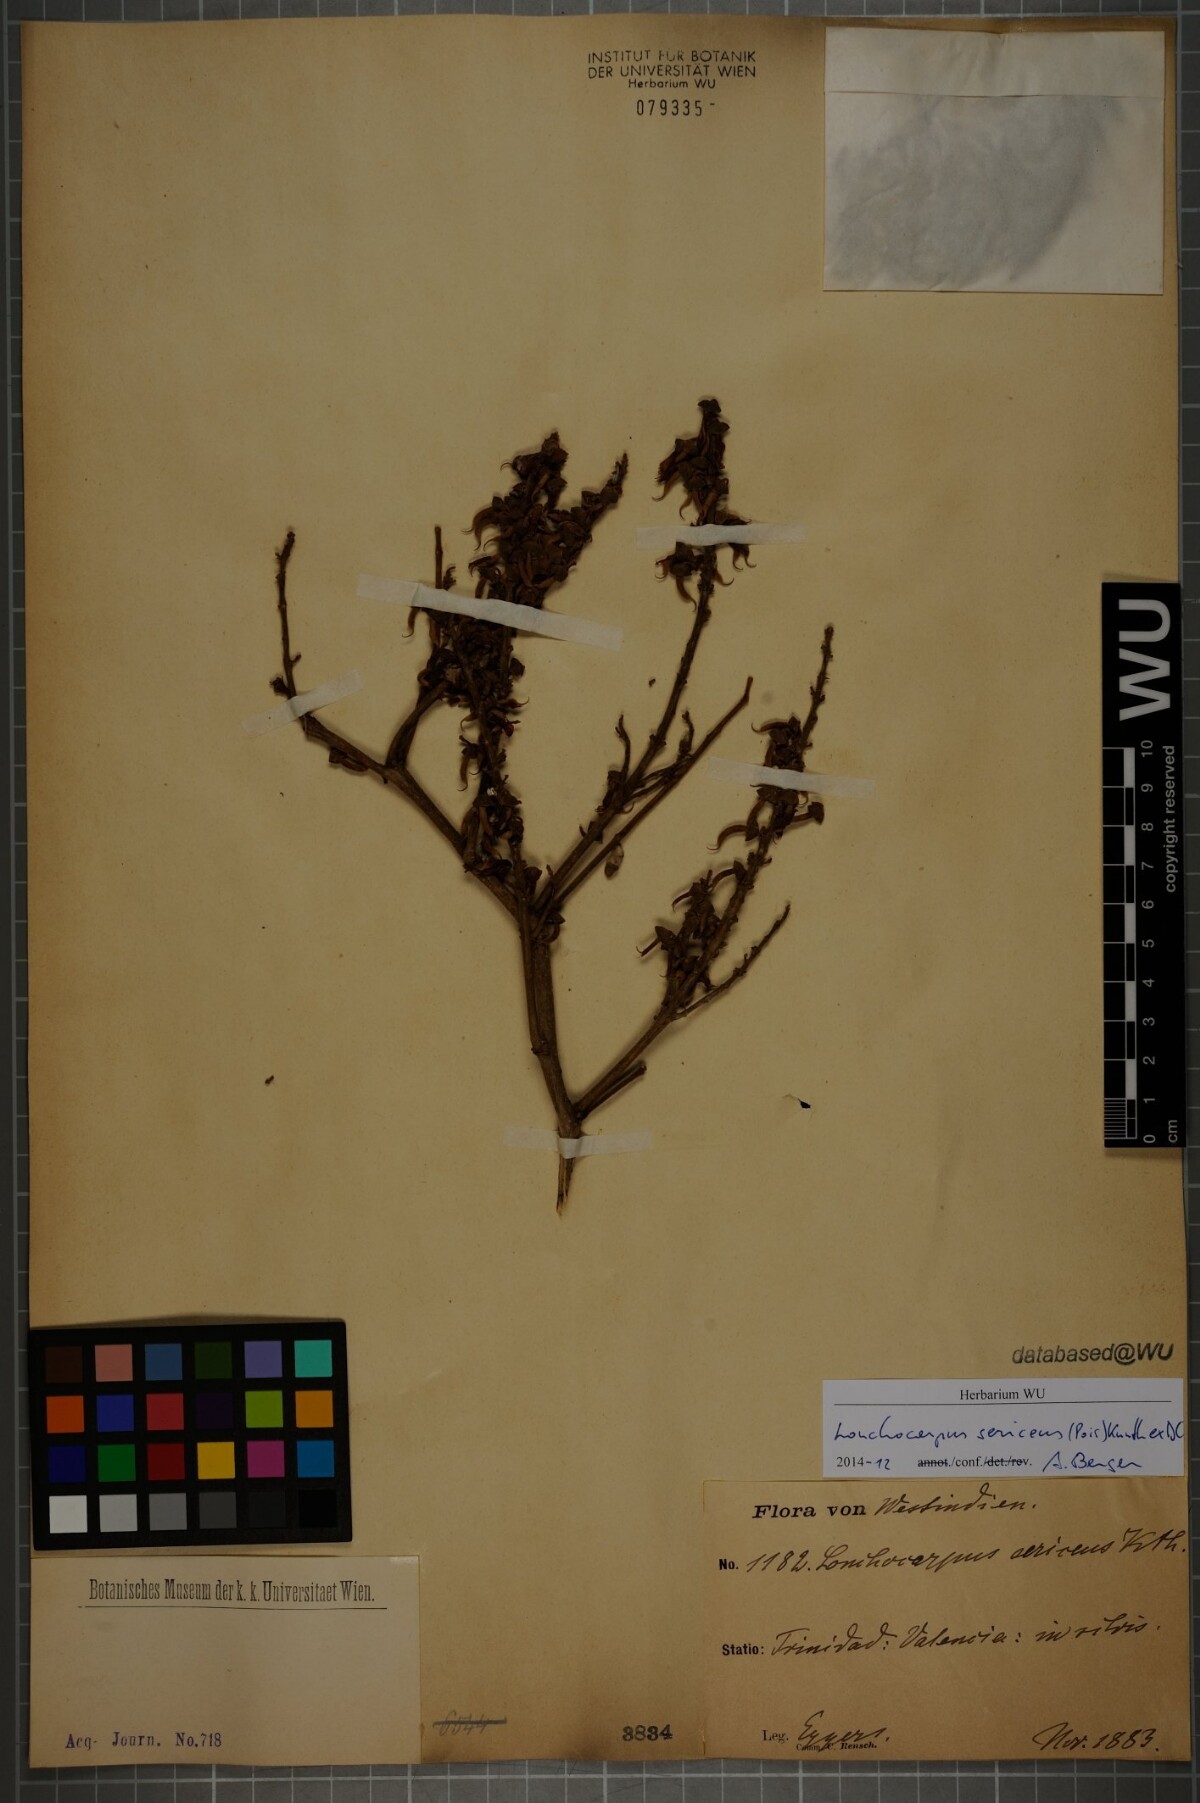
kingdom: Plantae
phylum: Tracheophyta
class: Magnoliopsida
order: Fabales
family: Fabaceae
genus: Lonchocarpus
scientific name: Lonchocarpus sericeus
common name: Savonette
